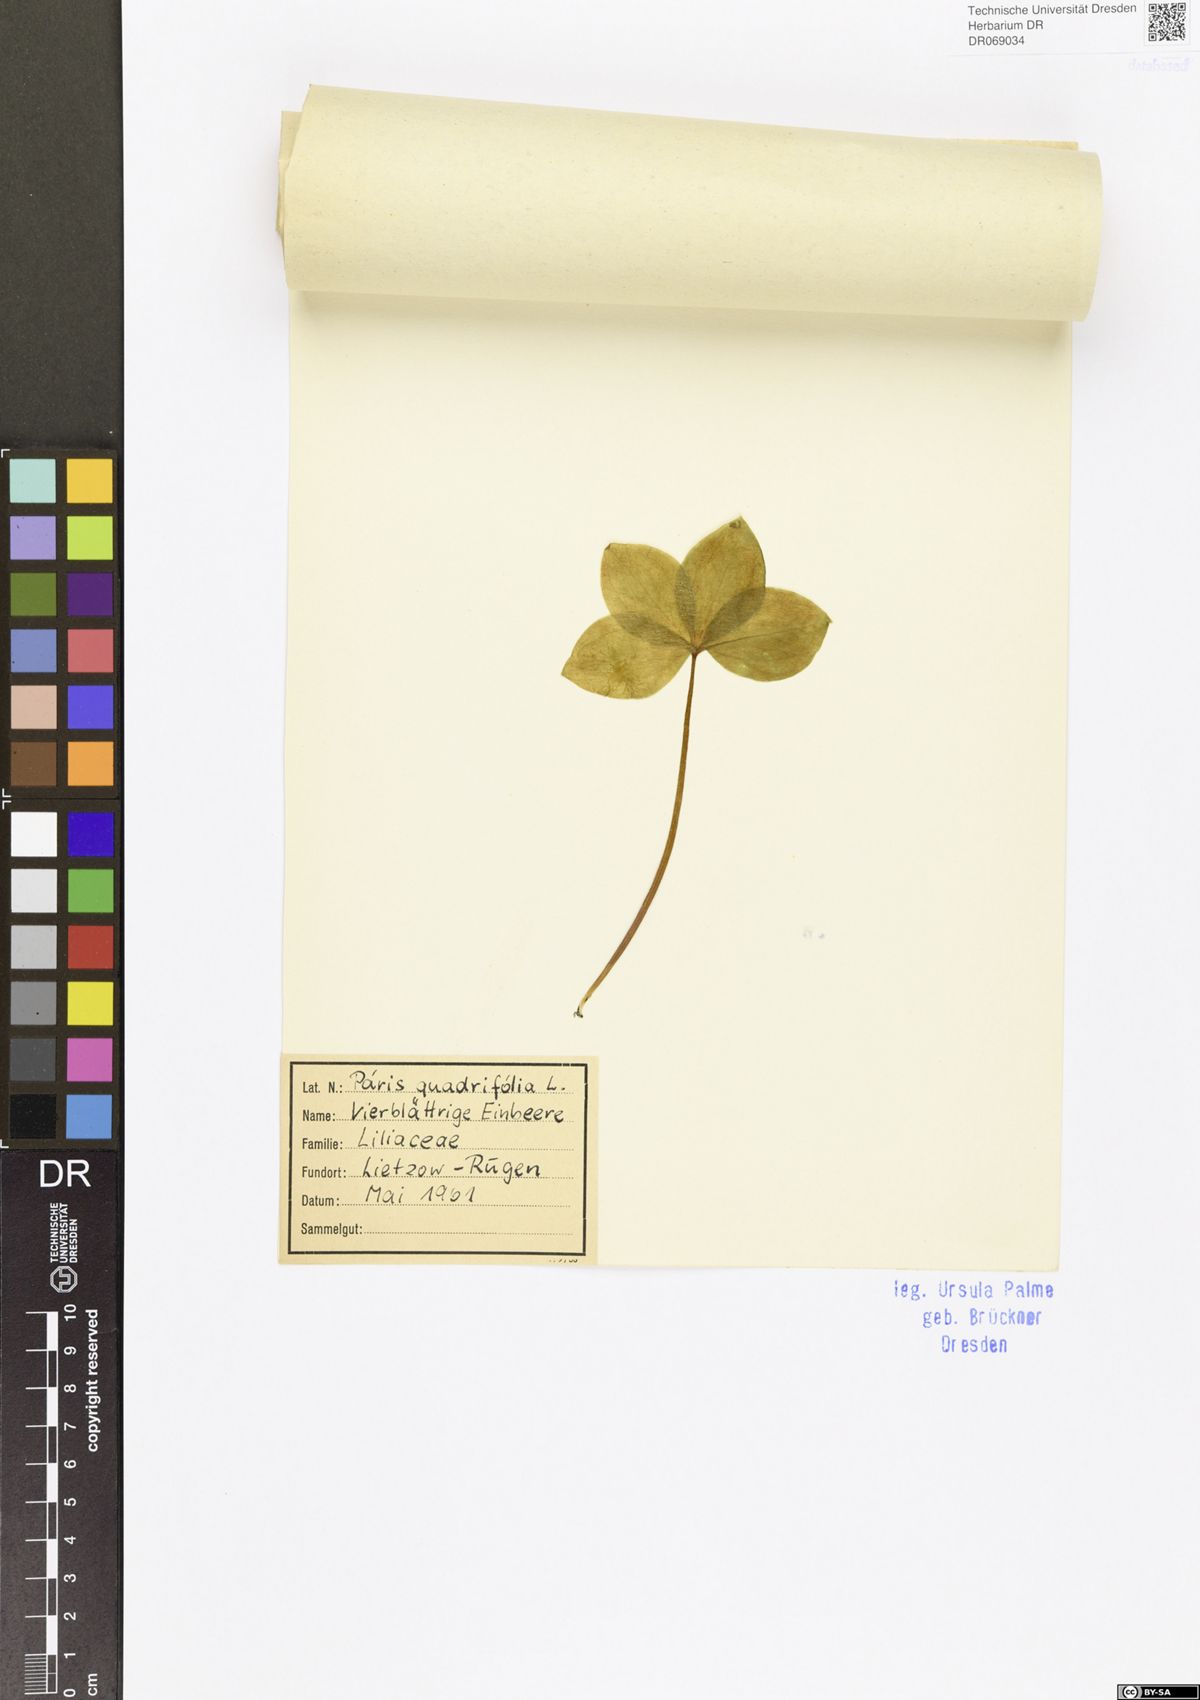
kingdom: Plantae
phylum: Tracheophyta
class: Liliopsida
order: Liliales
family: Melanthiaceae
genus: Paris
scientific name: Paris quadrifolia
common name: Herb-paris
